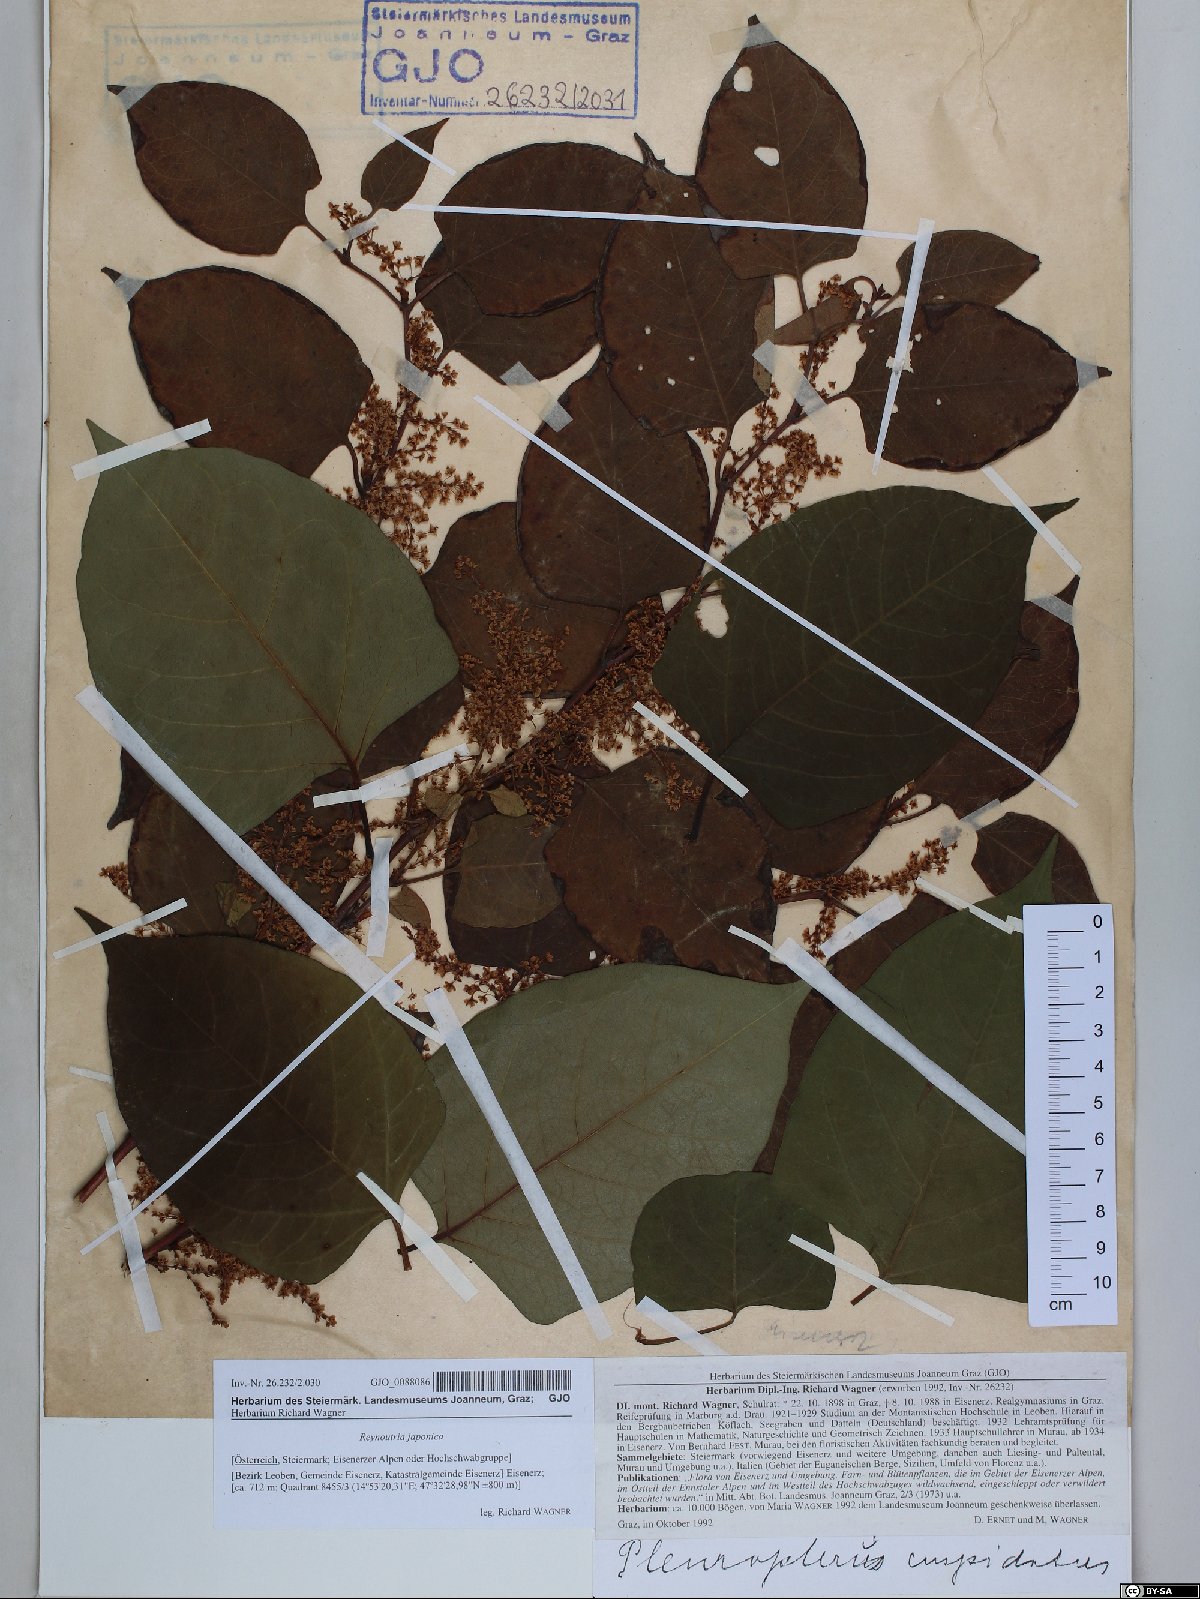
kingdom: Plantae
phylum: Tracheophyta
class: Magnoliopsida
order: Caryophyllales
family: Polygonaceae
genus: Reynoutria
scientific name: Reynoutria japonica
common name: Japanese knotweed
